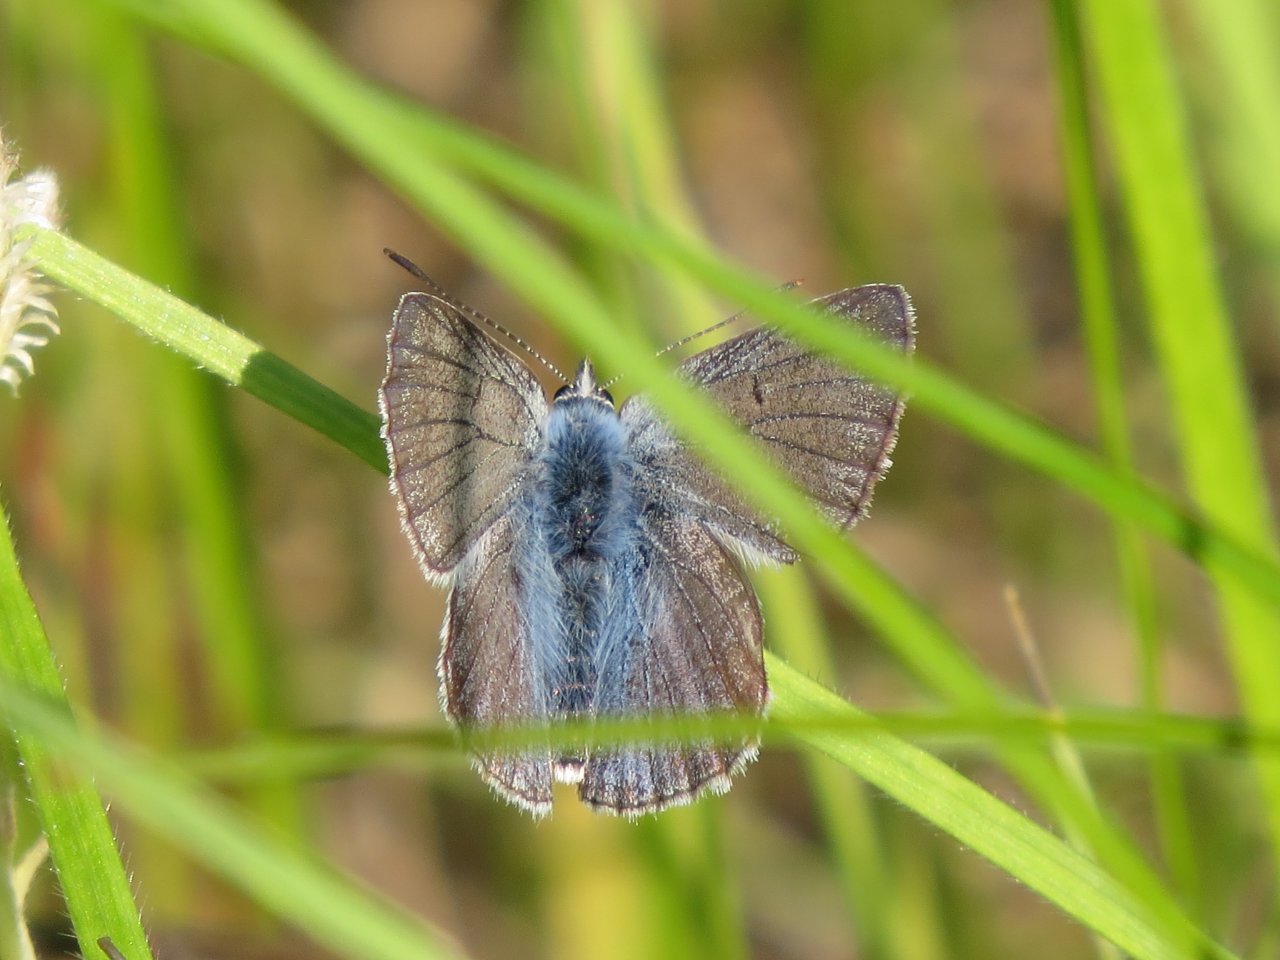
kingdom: Animalia
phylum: Arthropoda
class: Insecta
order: Lepidoptera
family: Lycaenidae
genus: Glaucopsyche
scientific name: Glaucopsyche lygdamus
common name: Silvery Blue
